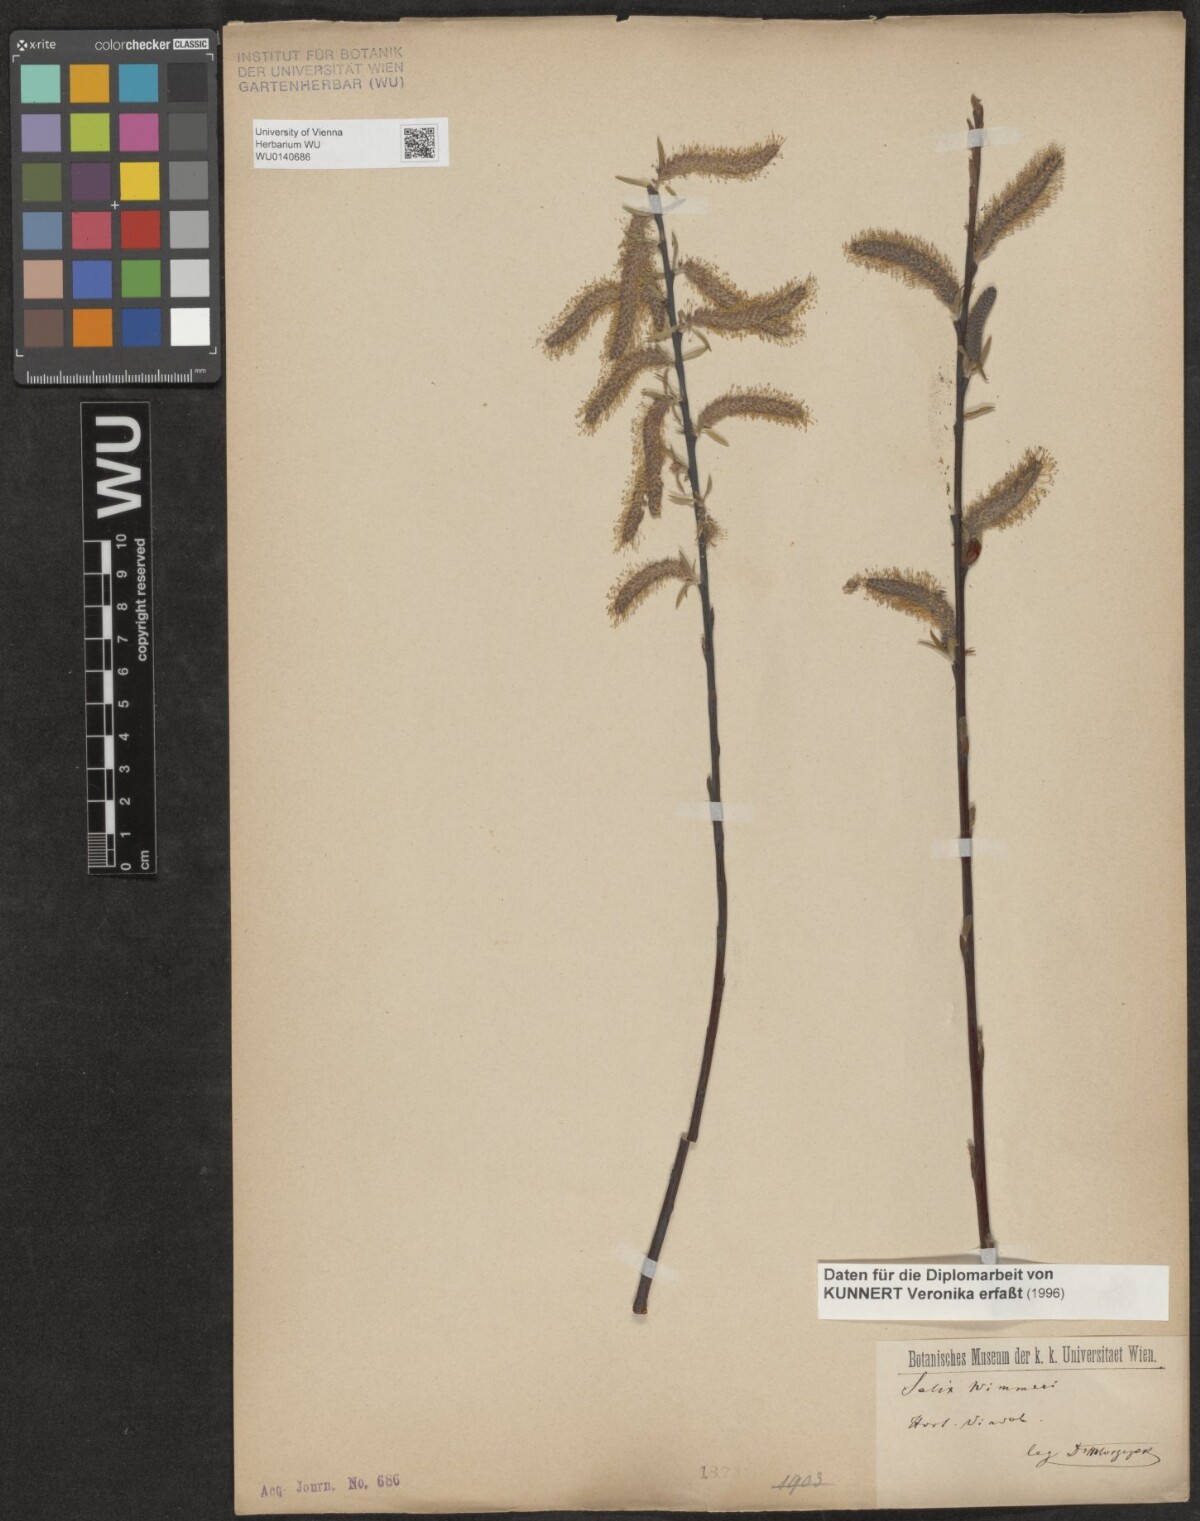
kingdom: Plantae
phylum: Tracheophyta
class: Magnoliopsida
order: Malpighiales
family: Salicaceae
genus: Salix
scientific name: Salix
